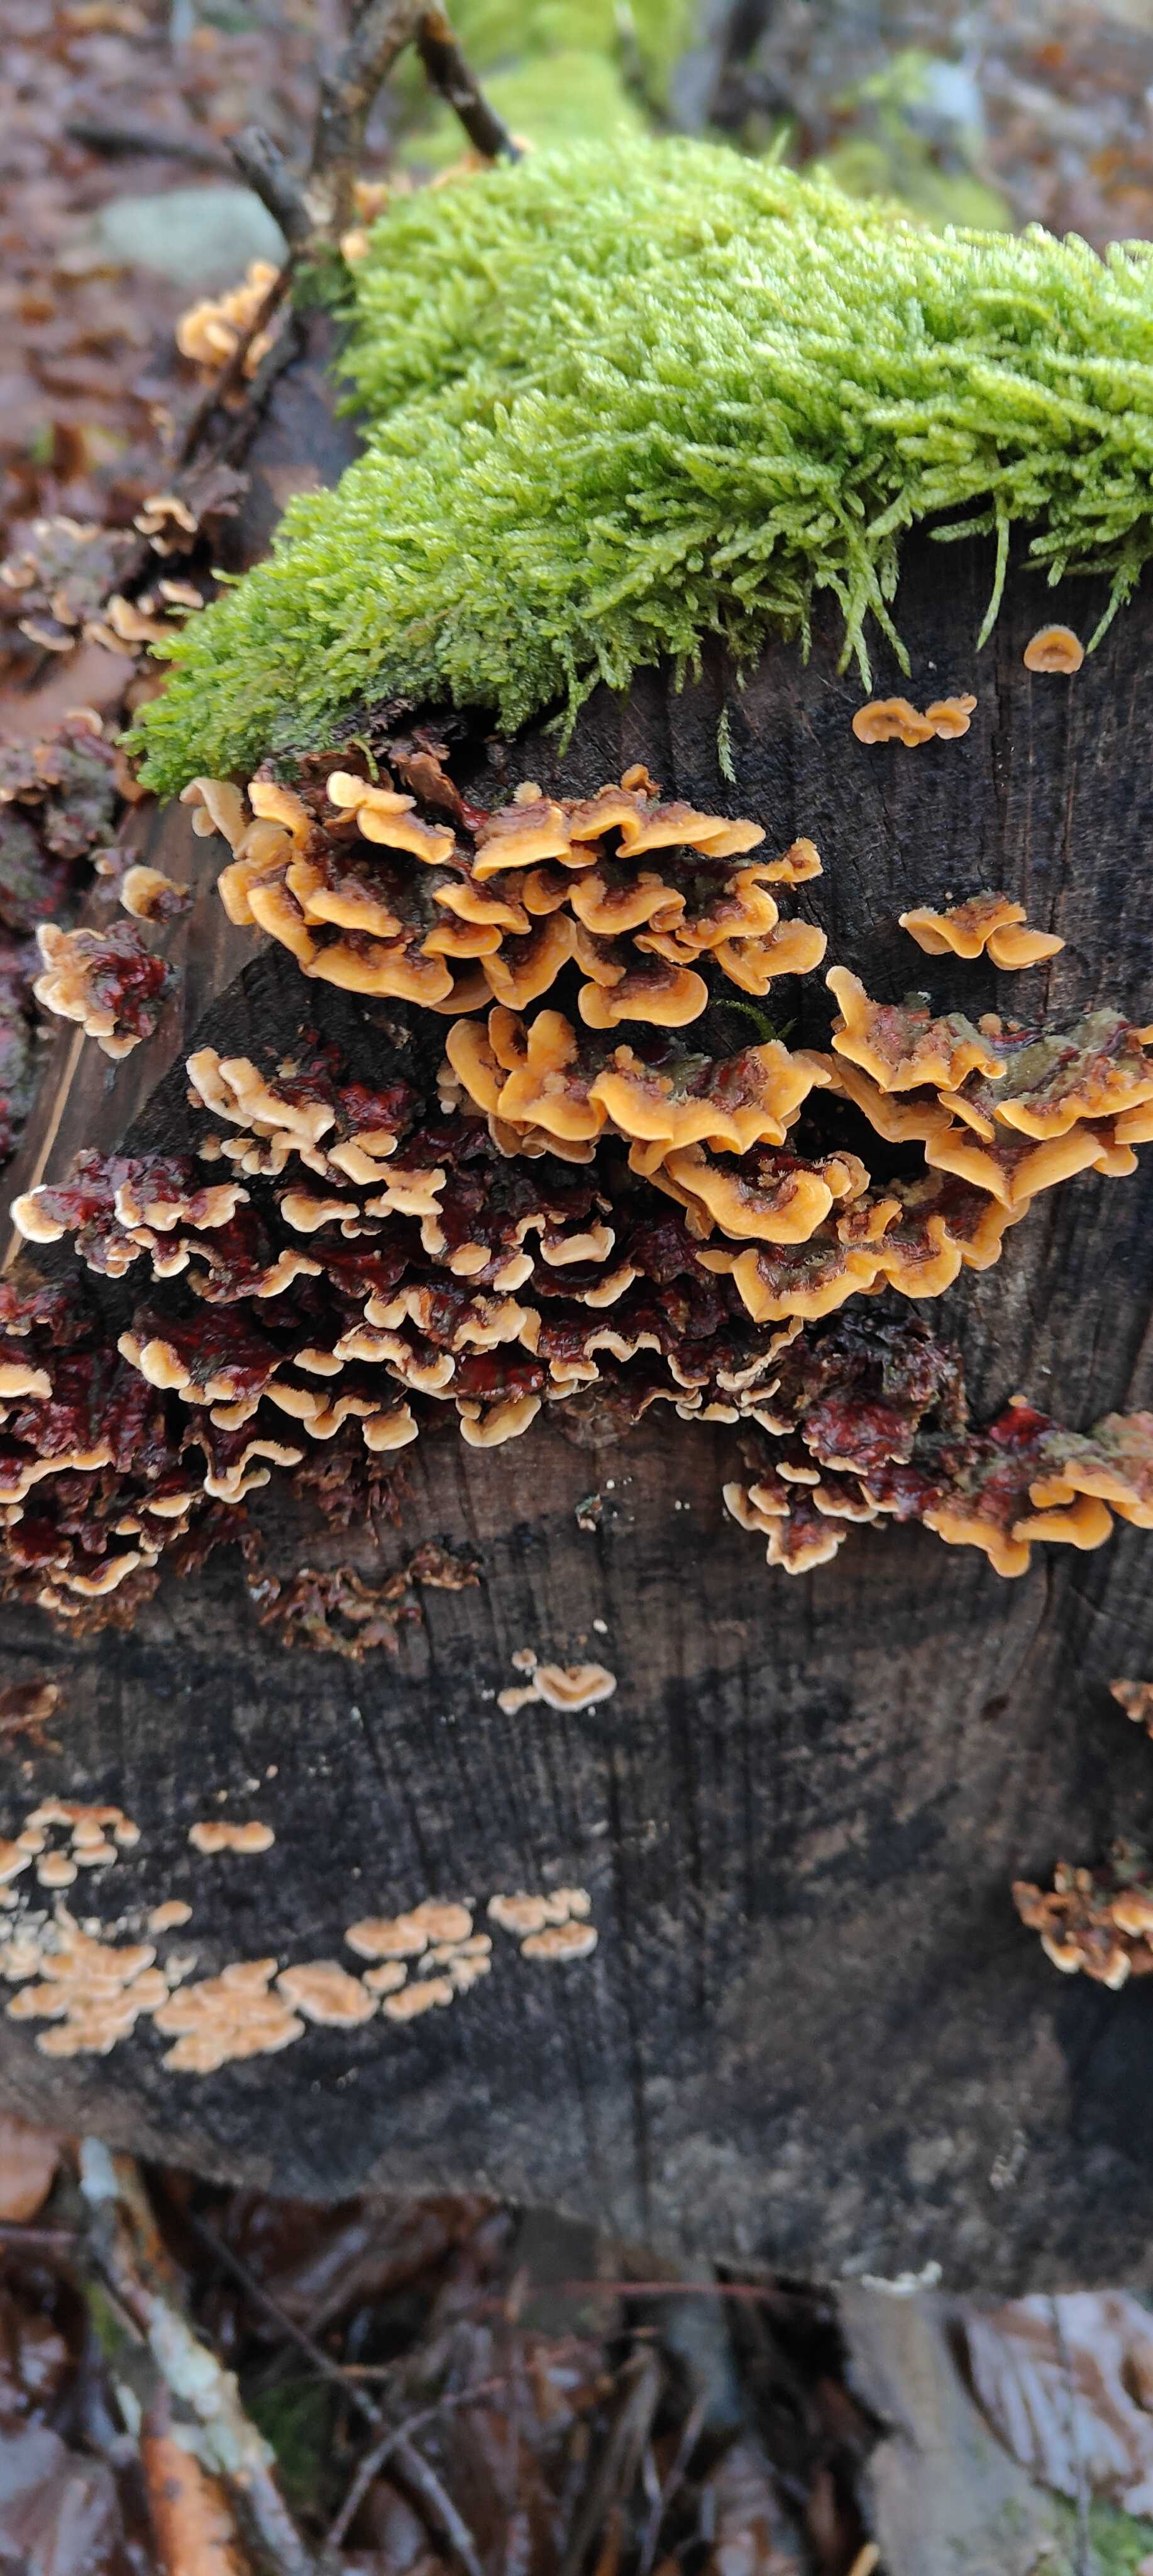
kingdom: Fungi
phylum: Basidiomycota
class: Agaricomycetes
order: Russulales
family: Stereaceae
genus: Stereum
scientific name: Stereum hirsutum
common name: håret lædersvamp
